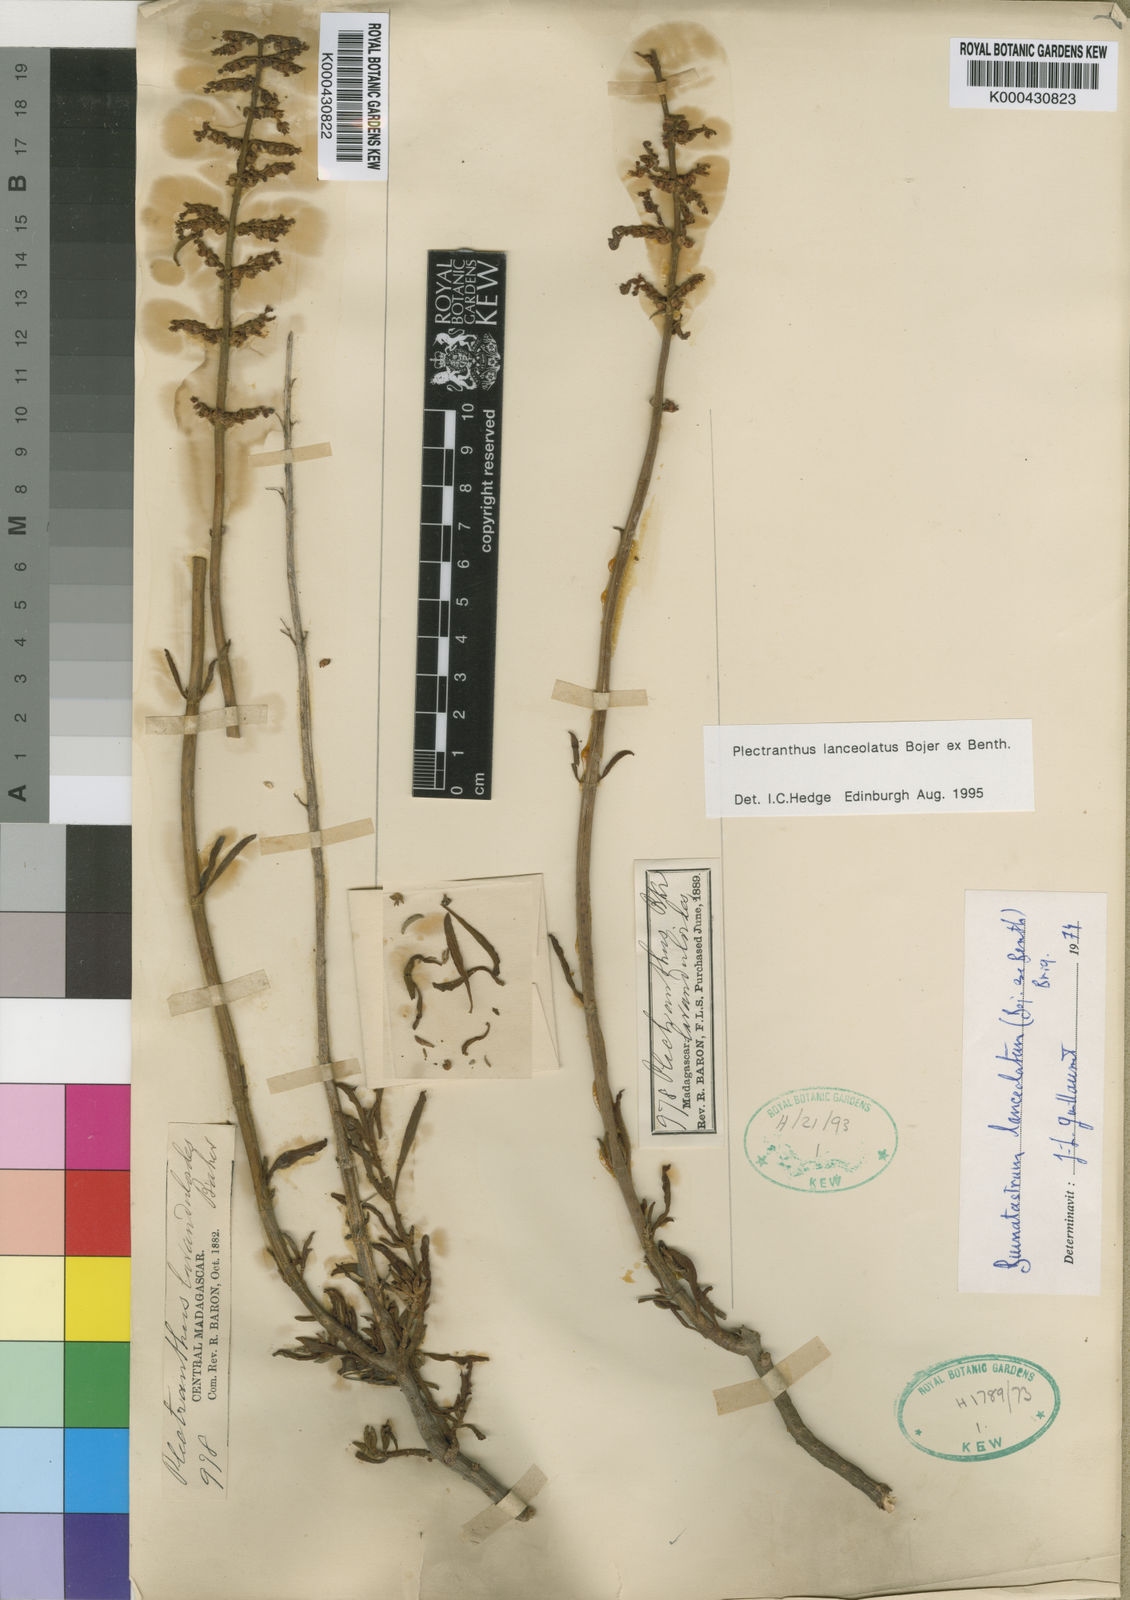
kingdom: Plantae
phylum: Tracheophyta
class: Magnoliopsida
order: Lamiales
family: Lamiaceae
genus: Coleus
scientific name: Coleus lanceolatus
